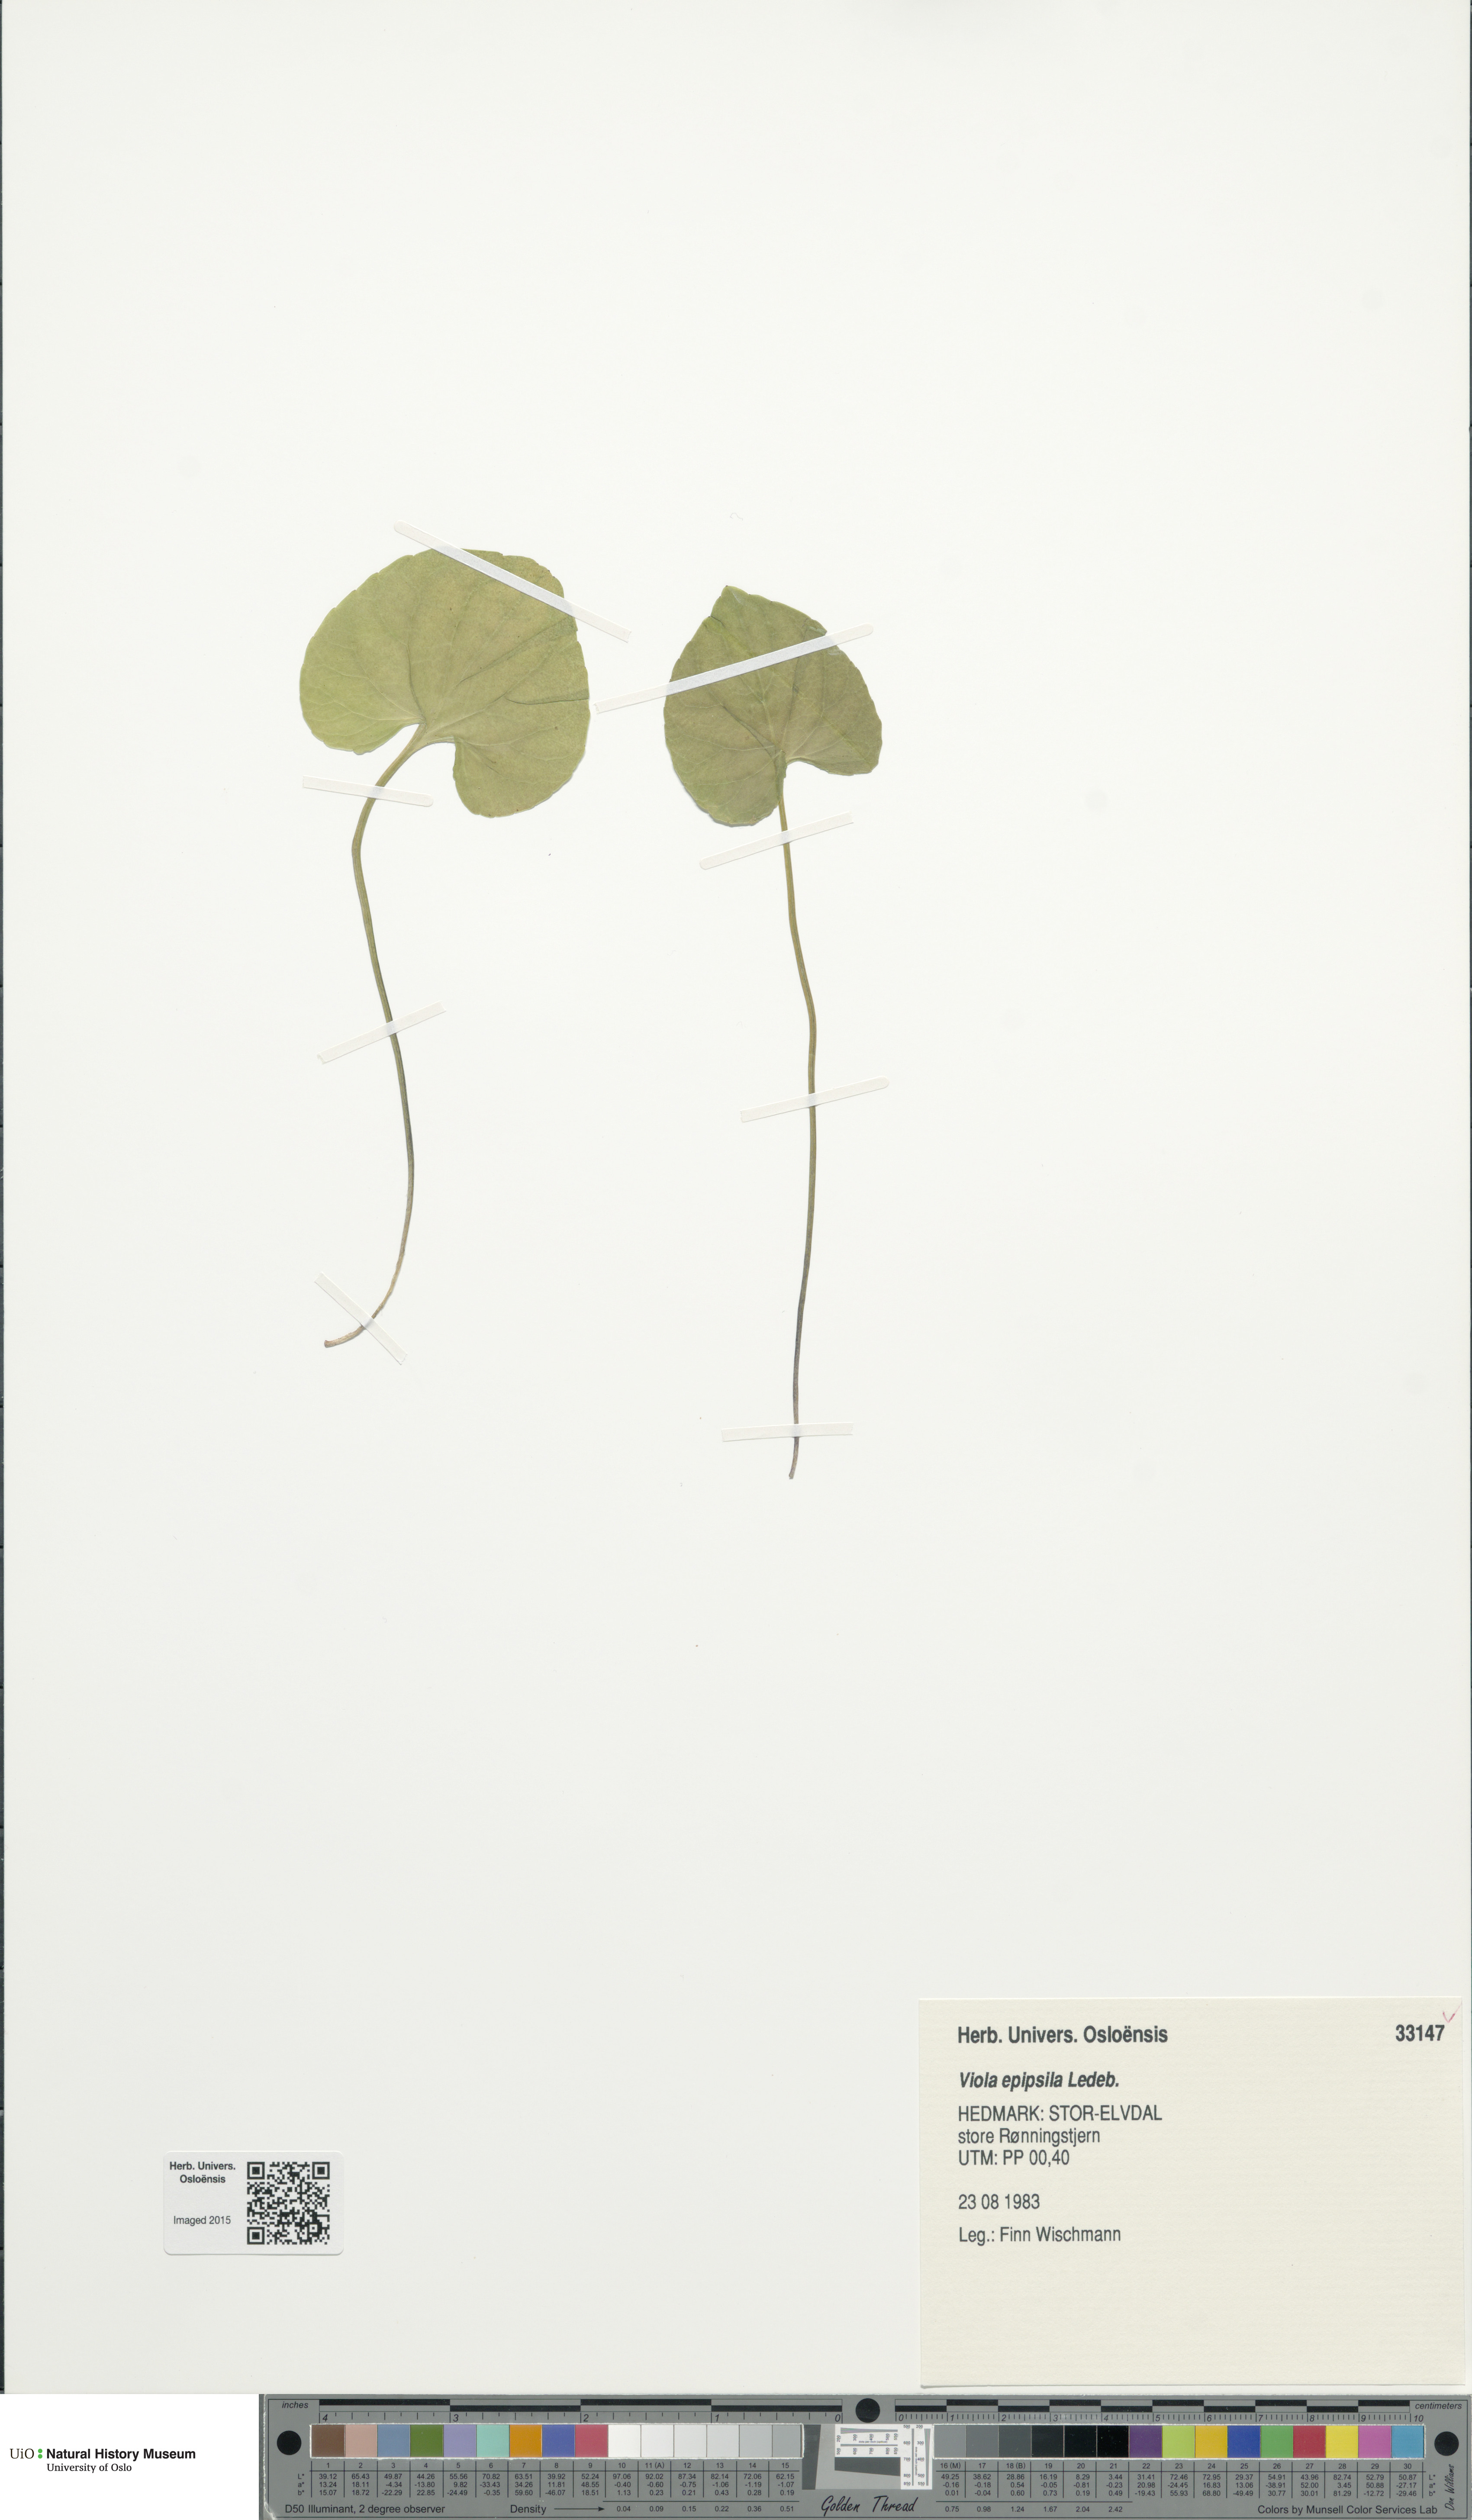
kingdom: Plantae
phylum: Tracheophyta
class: Magnoliopsida
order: Malpighiales
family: Violaceae
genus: Viola
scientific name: Viola epipsila
